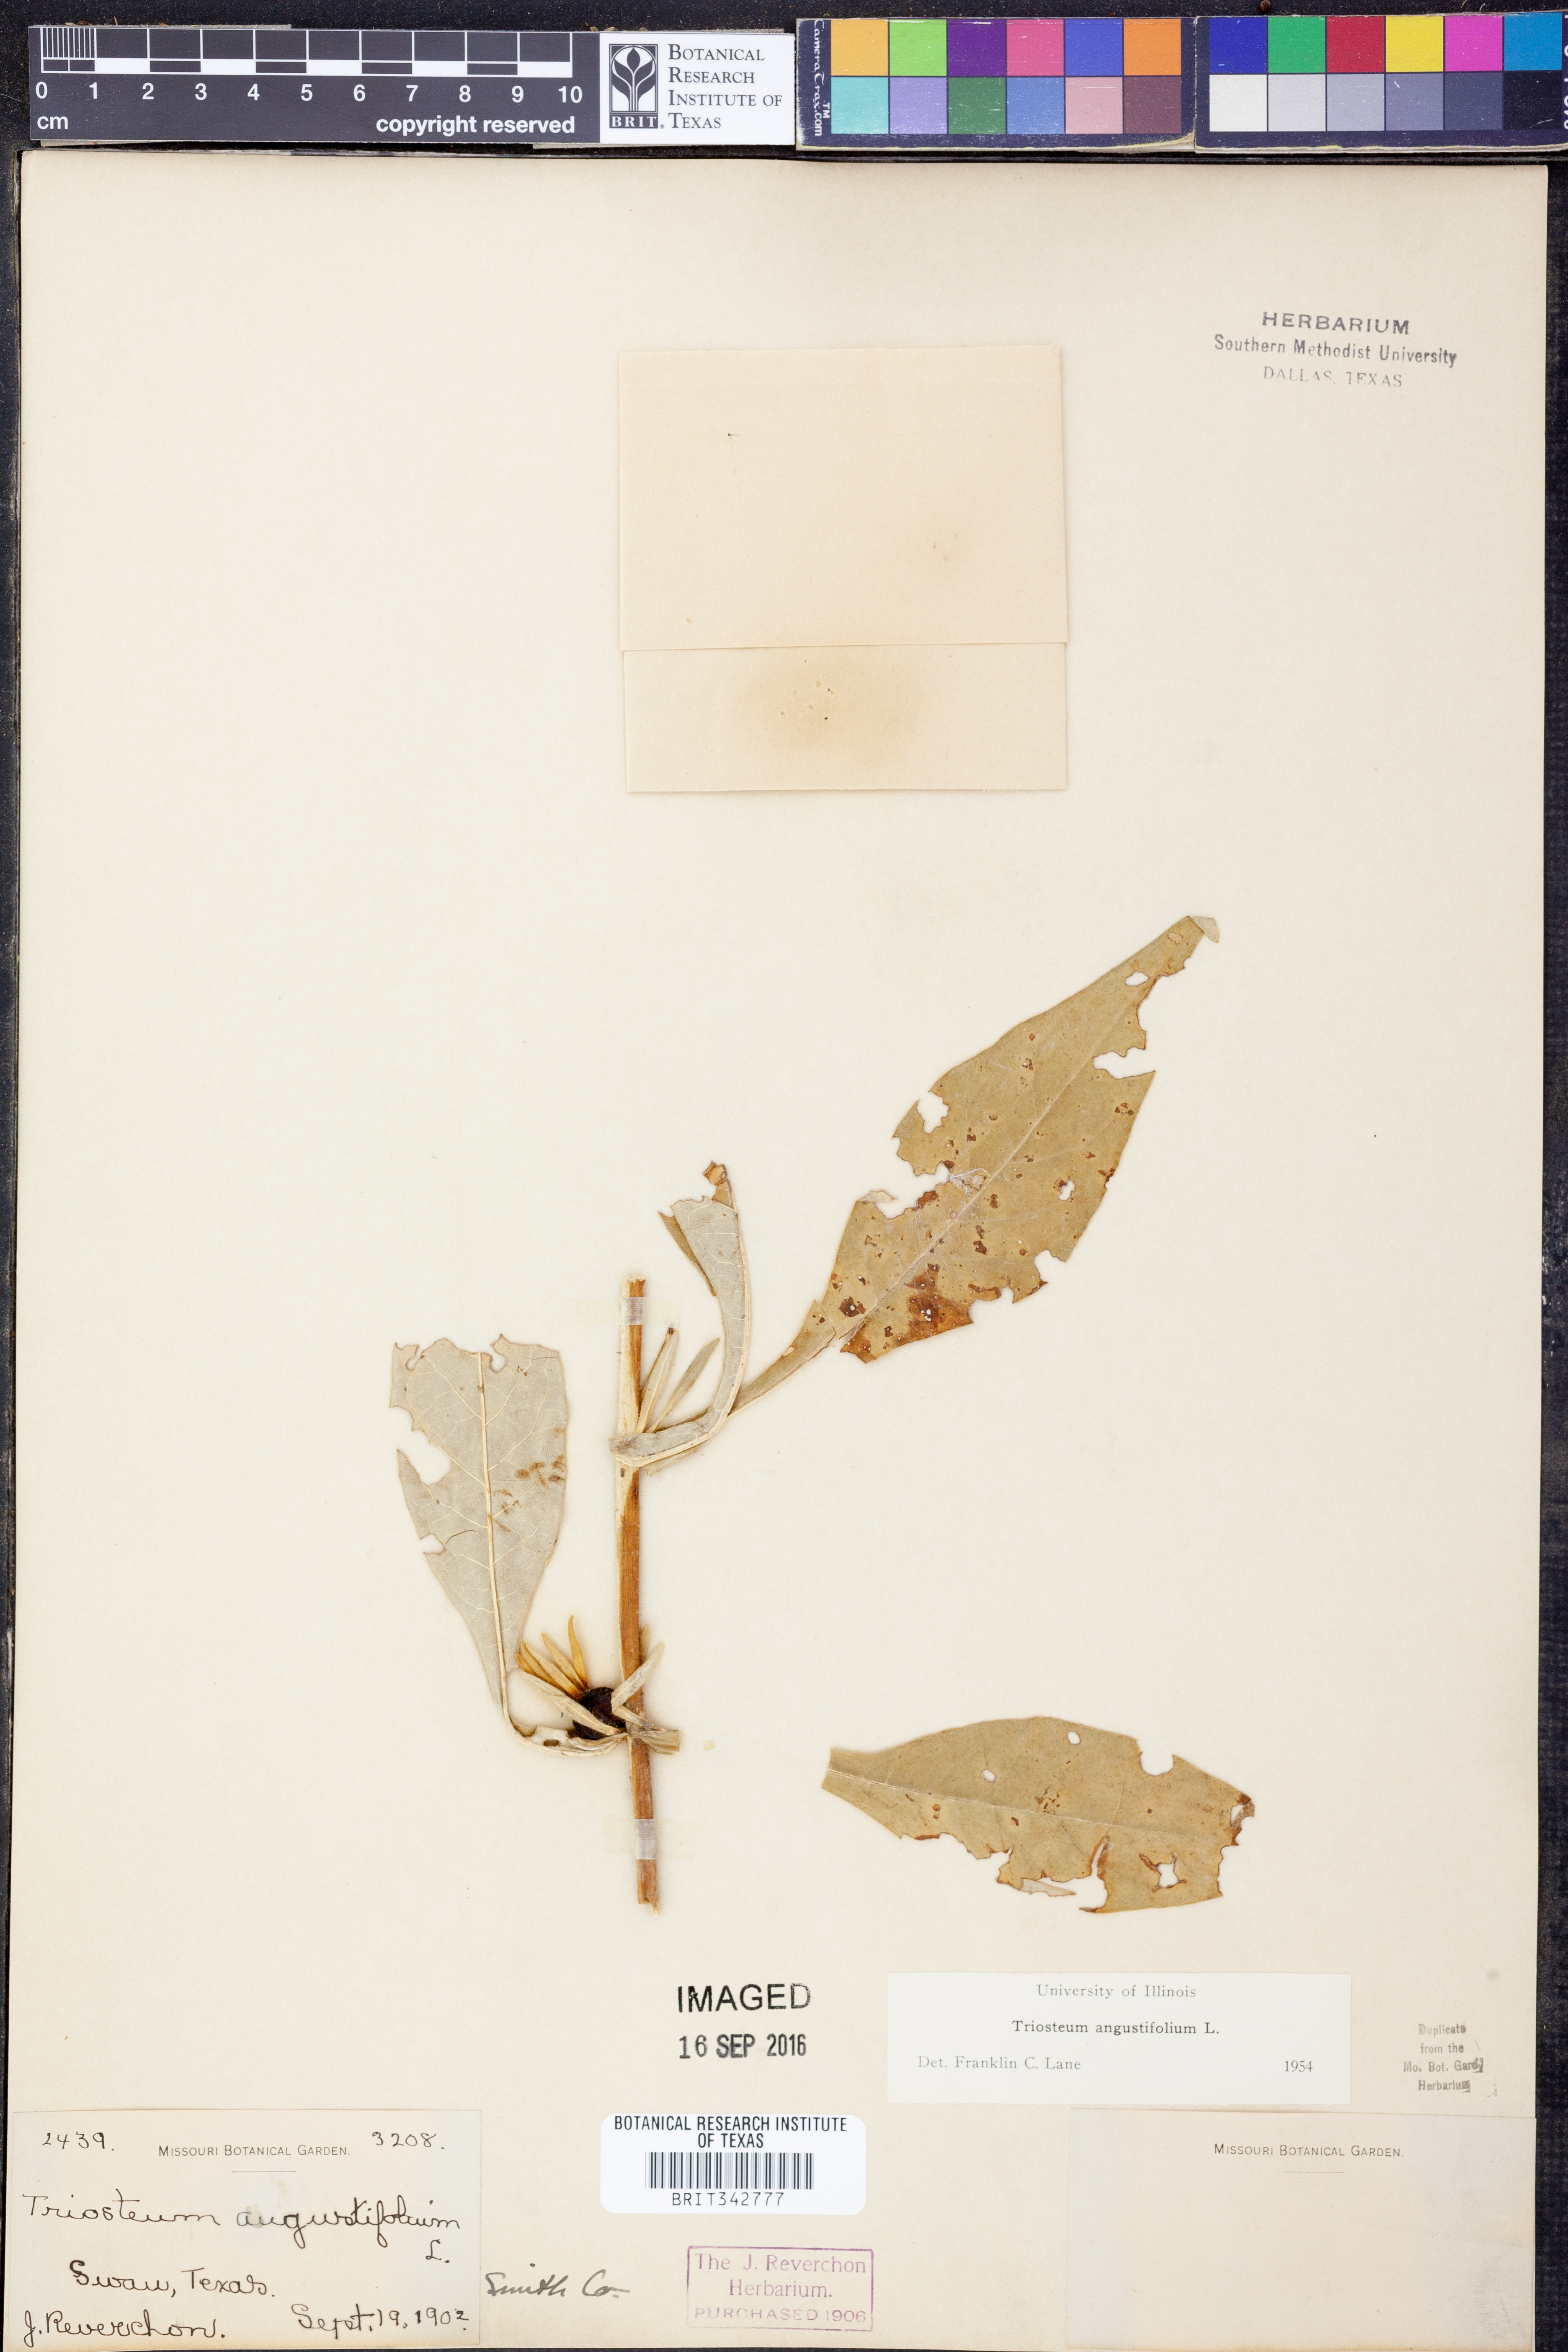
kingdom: Plantae
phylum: Tracheophyta
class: Magnoliopsida
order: Dipsacales
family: Caprifoliaceae
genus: Triosteum
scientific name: Triosteum angustifolium
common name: Narrow-leaved horse-gentian
